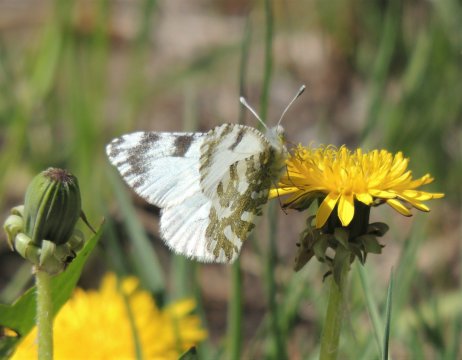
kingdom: Animalia
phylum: Arthropoda
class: Insecta
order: Lepidoptera
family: Pieridae
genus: Euchloe
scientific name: Euchloe lotta
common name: Desert Marble
